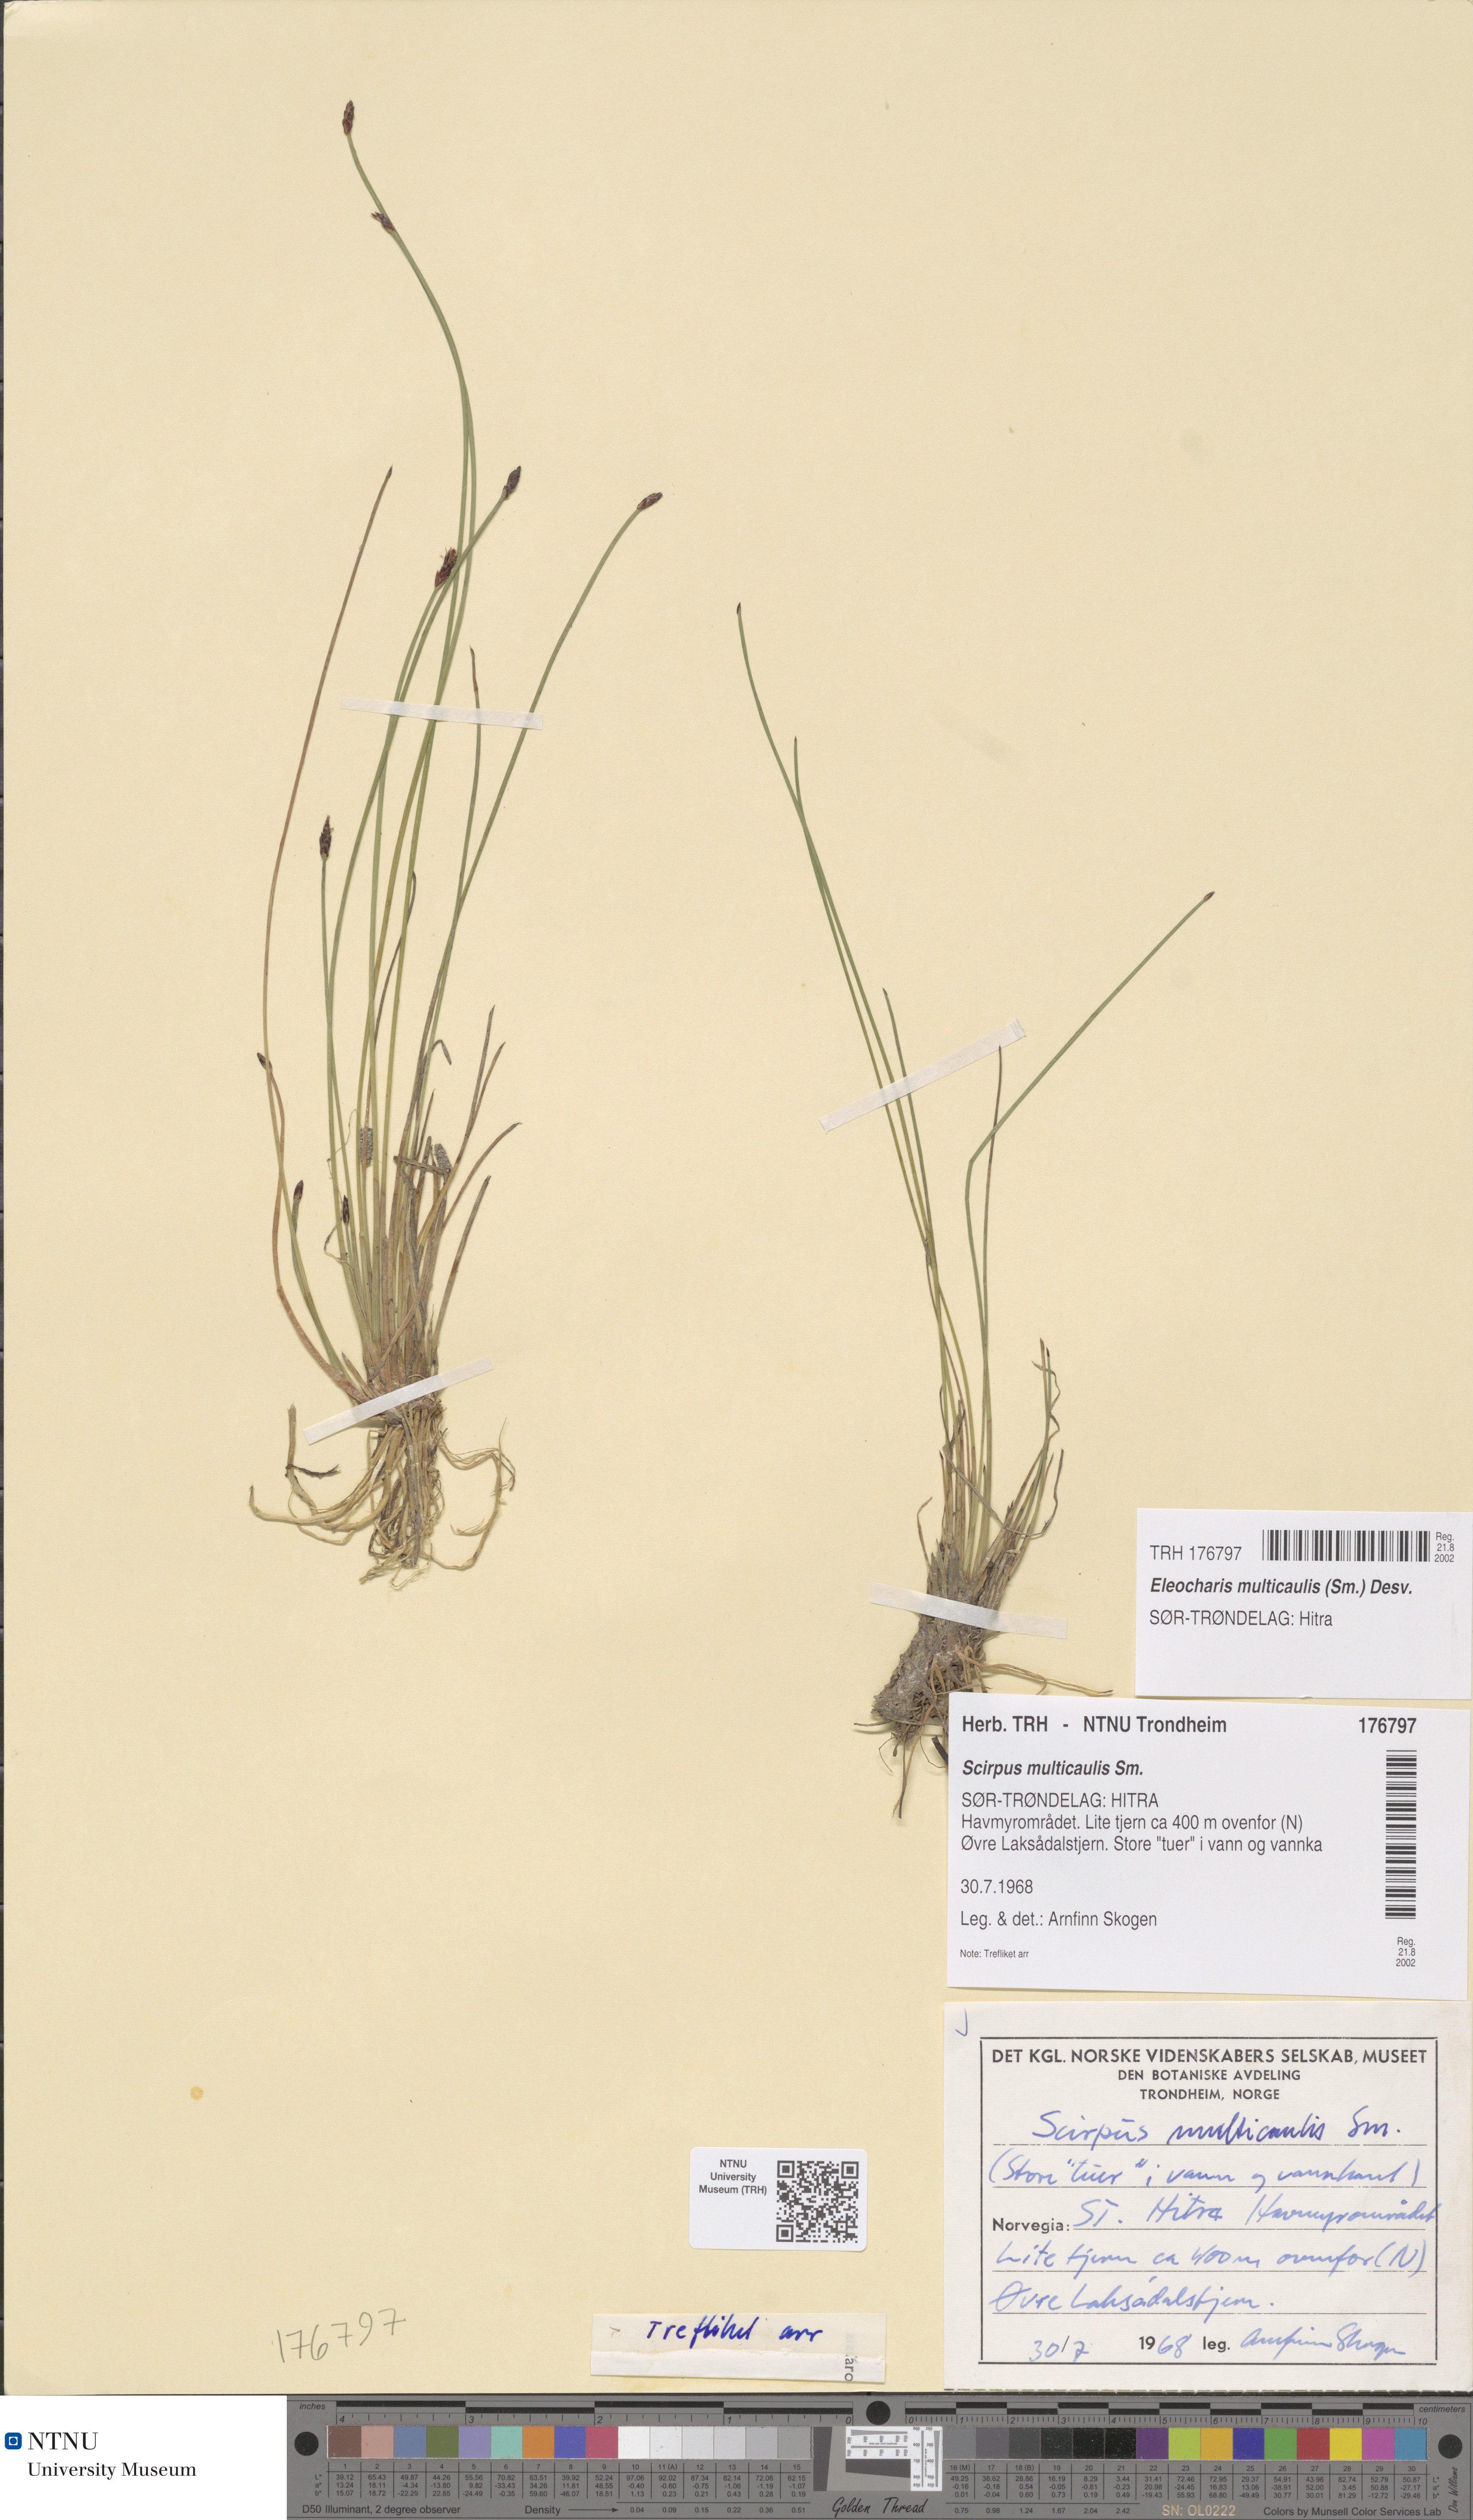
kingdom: Plantae
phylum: Tracheophyta
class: Liliopsida
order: Poales
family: Cyperaceae
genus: Eleocharis
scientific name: Eleocharis multicaulis
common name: Many-stalked spike-rush
